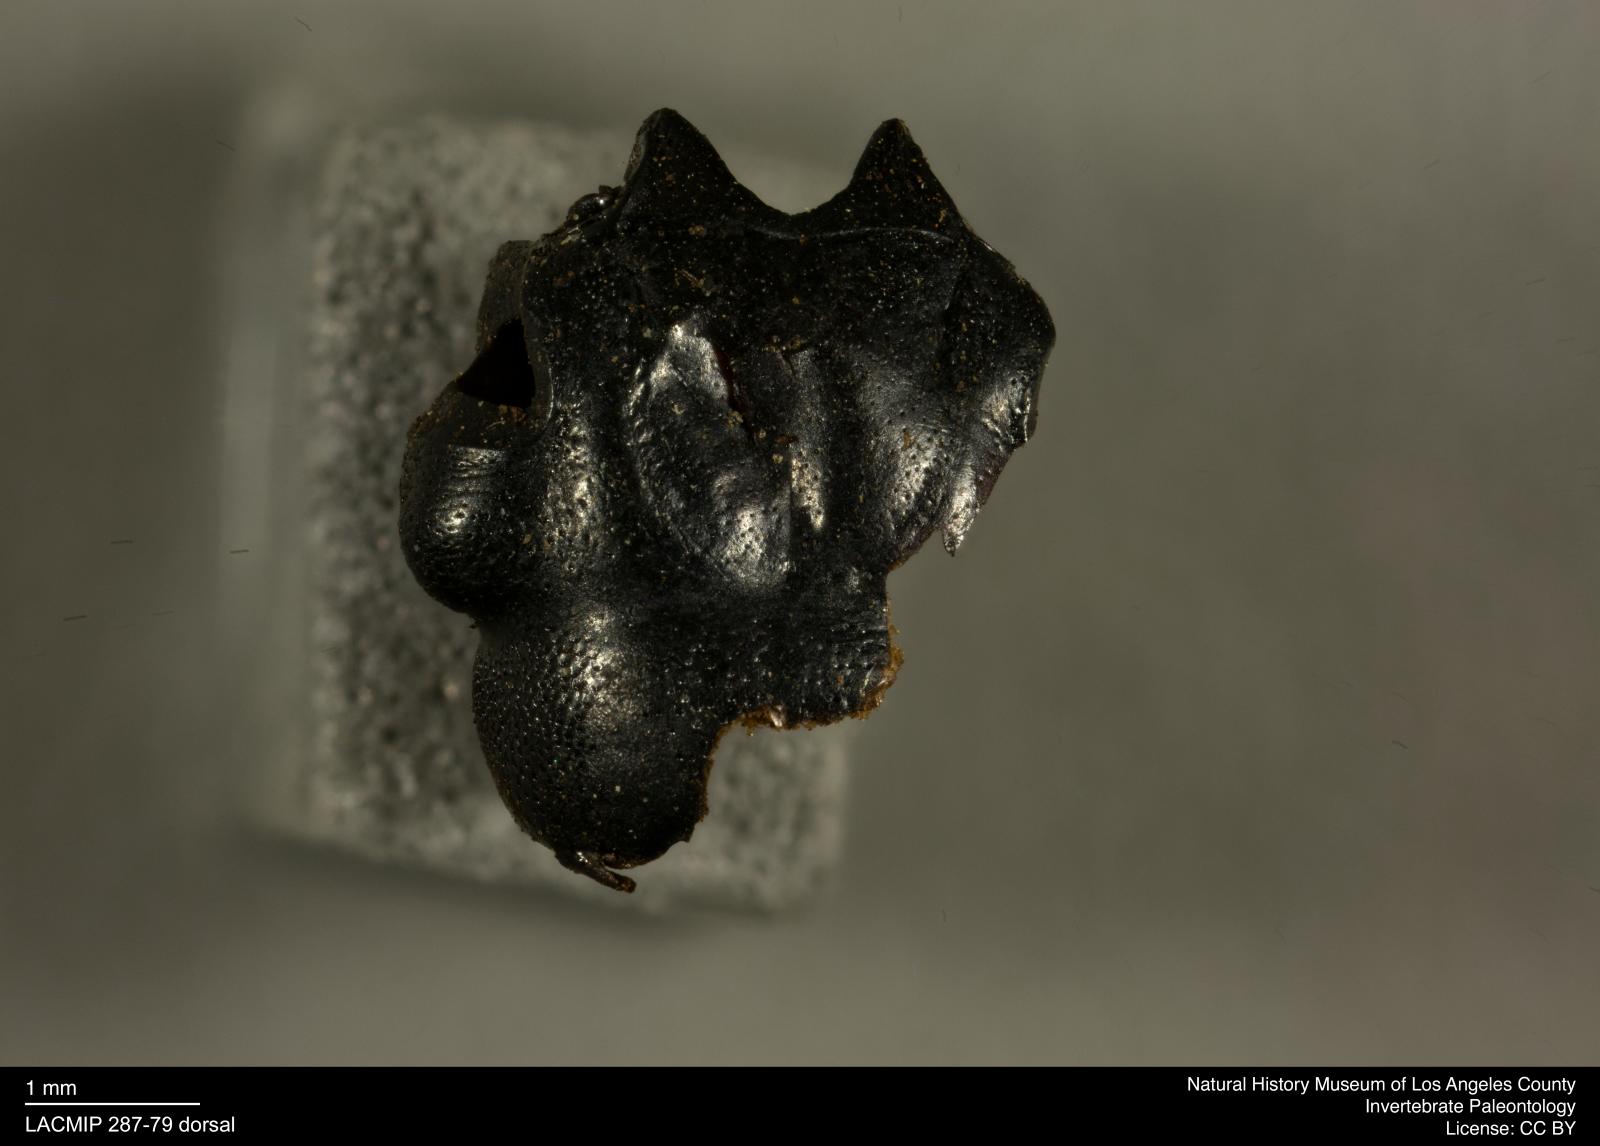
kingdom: Animalia
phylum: Arthropoda
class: Insecta
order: Coleoptera
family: Staphylinidae
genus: Nicrophorus
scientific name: Nicrophorus marginatus
